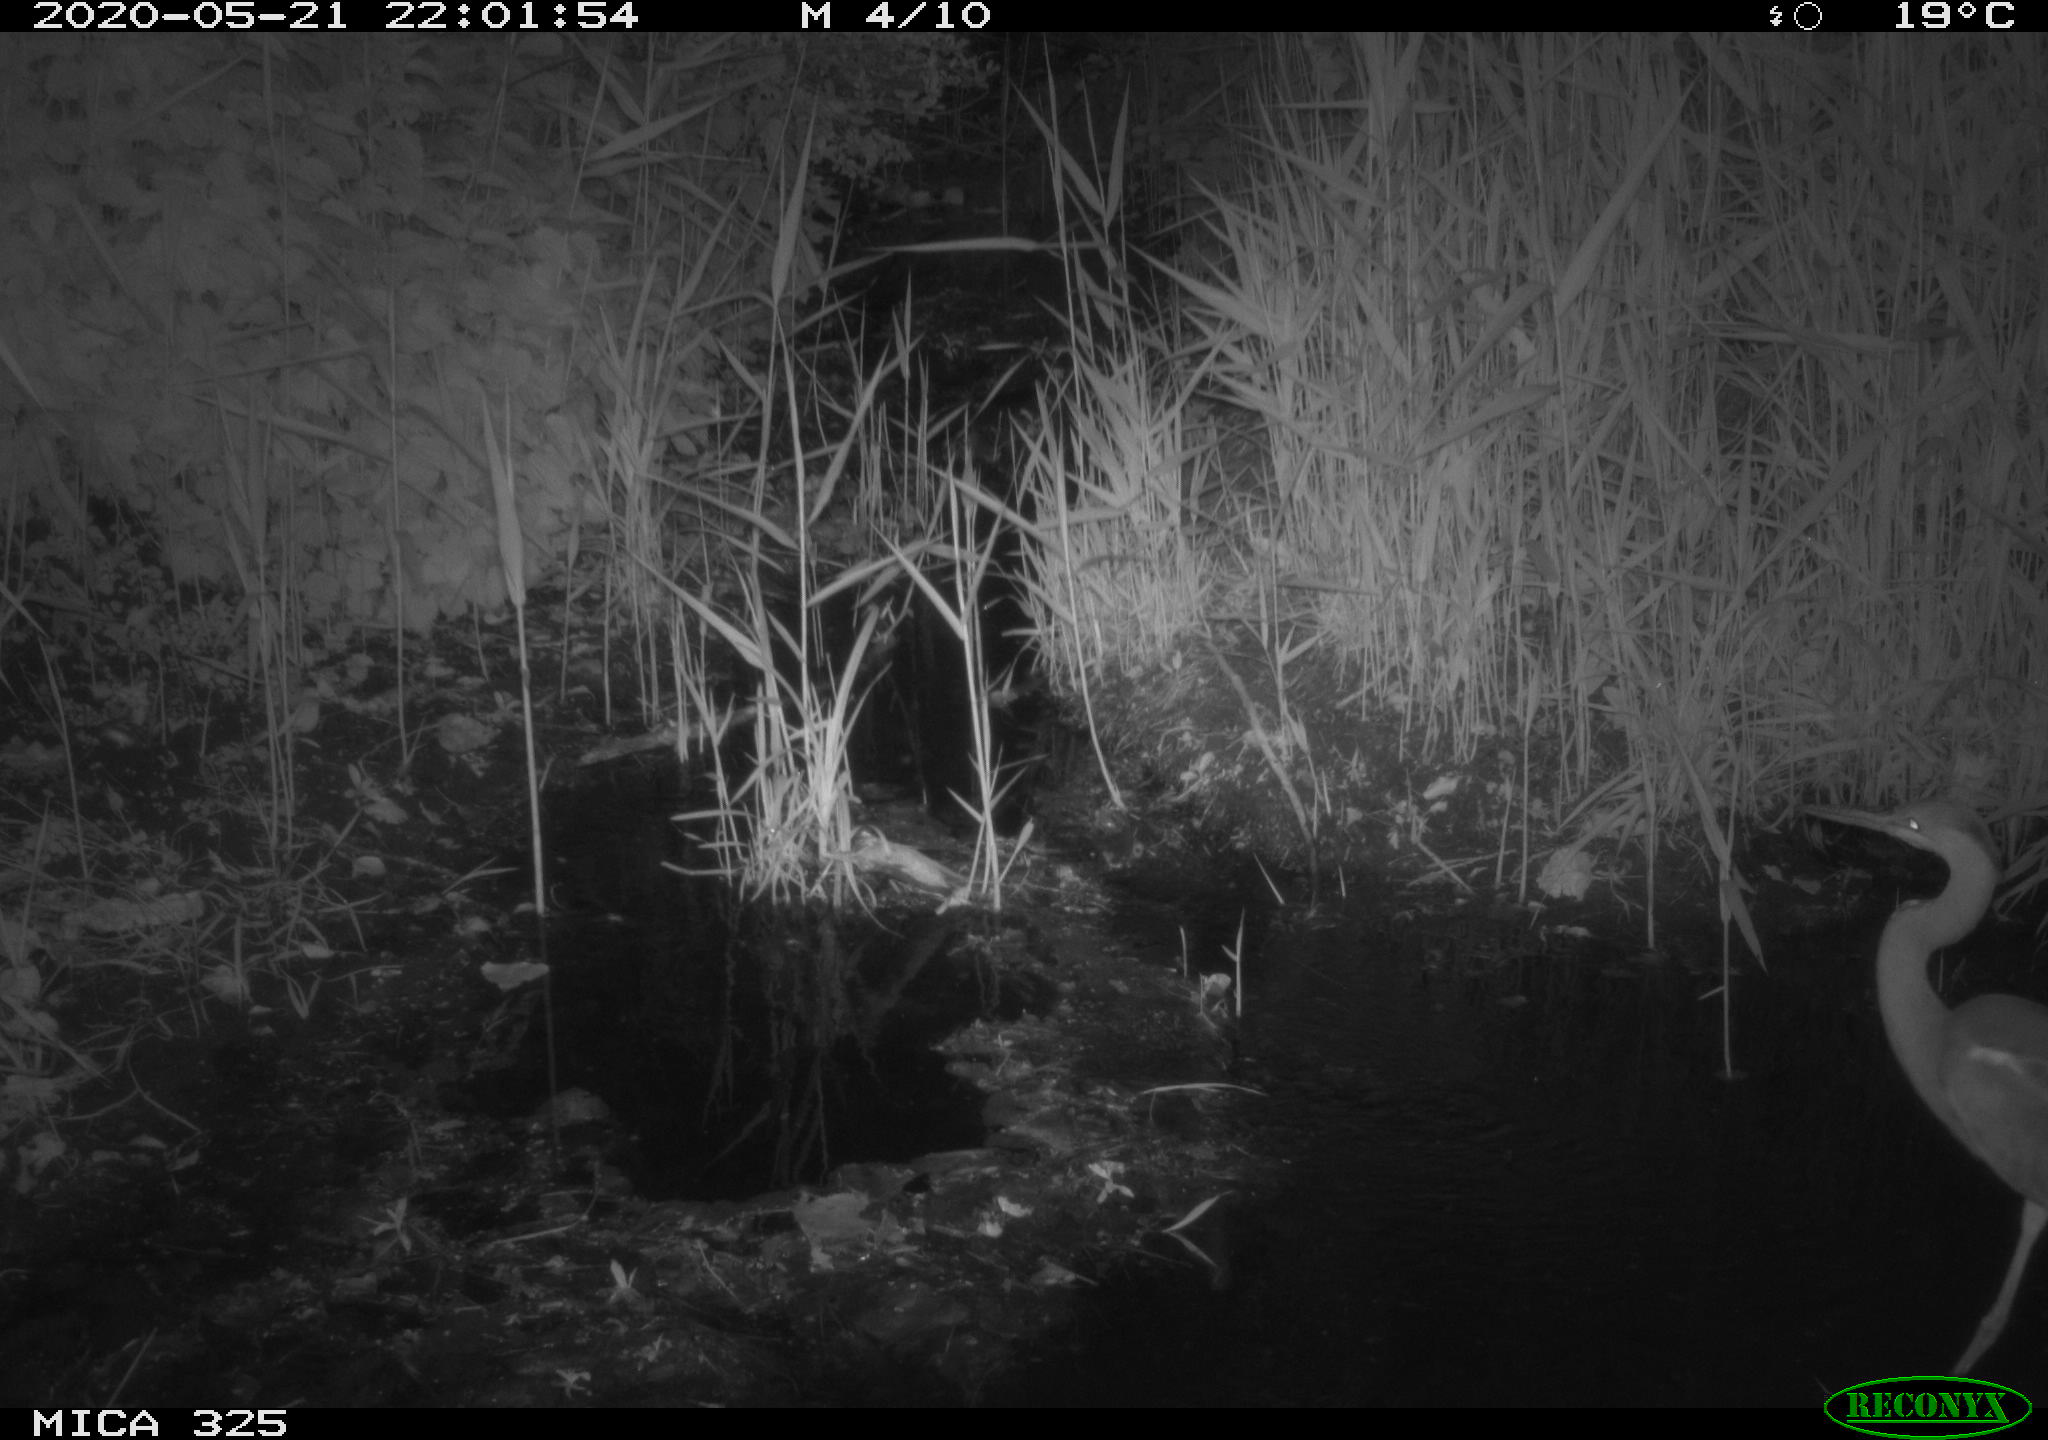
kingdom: Animalia
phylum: Chordata
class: Aves
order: Pelecaniformes
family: Ardeidae
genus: Ardea
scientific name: Ardea cinerea
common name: Grey heron
